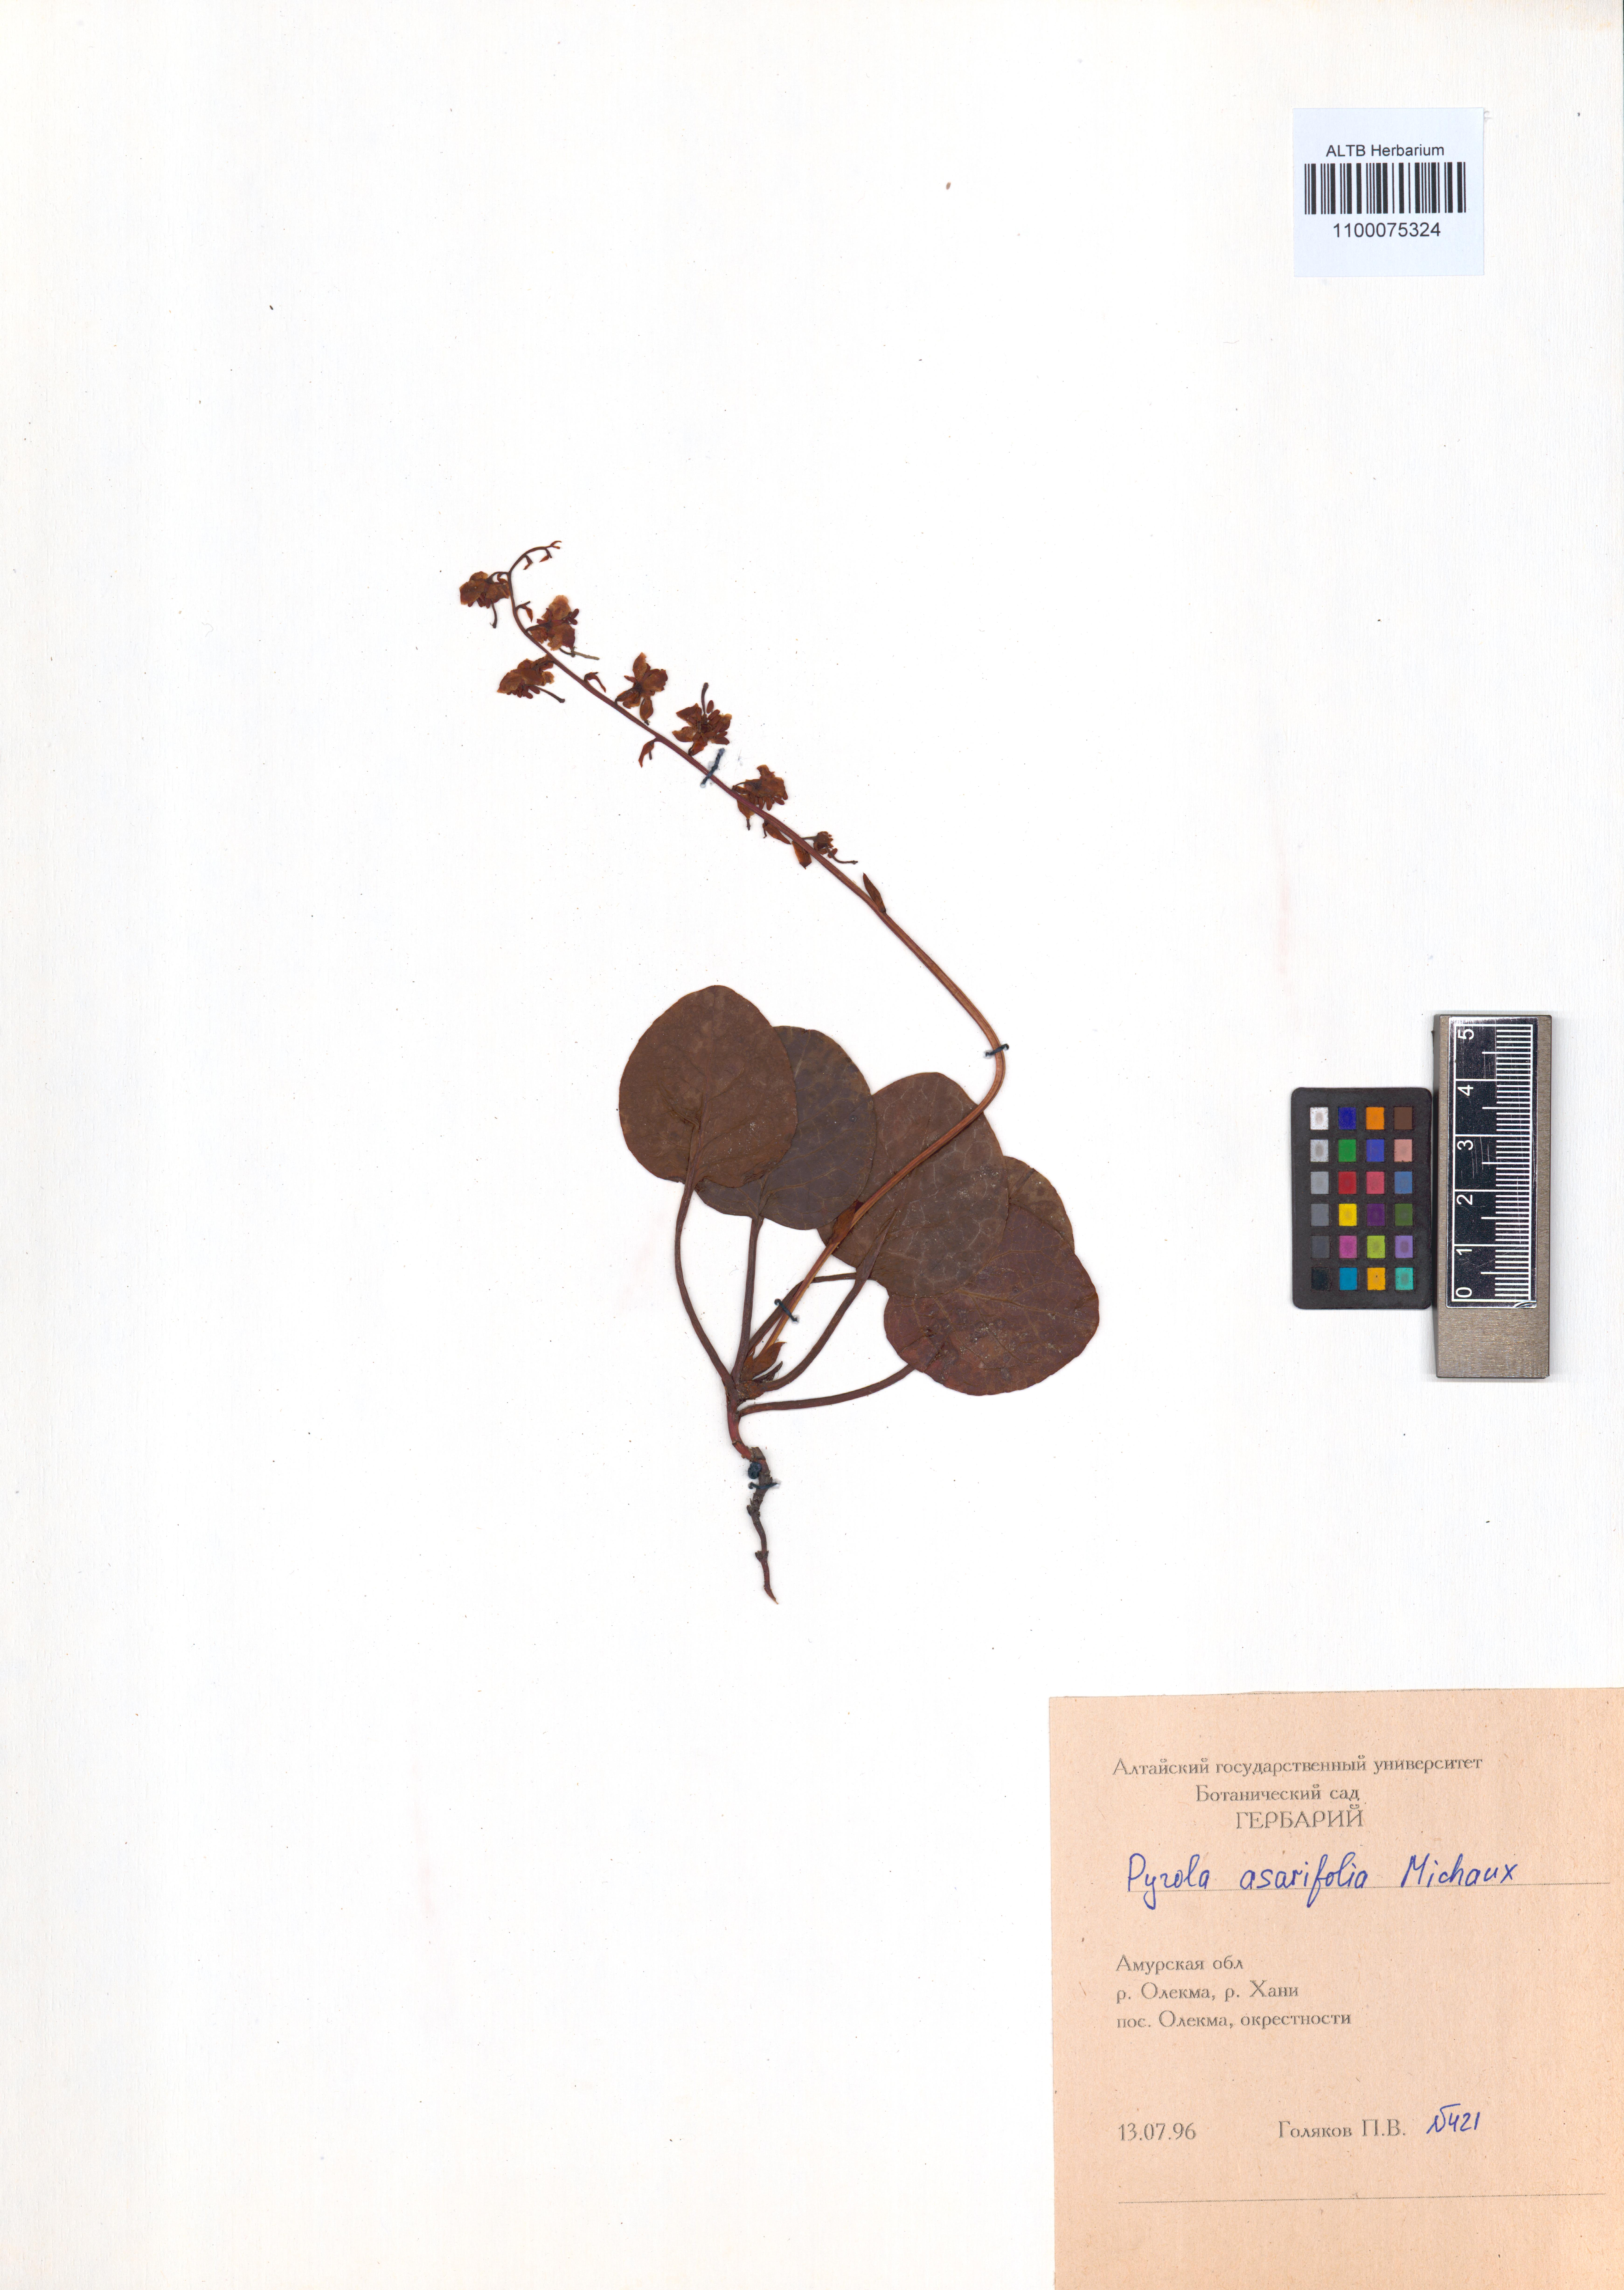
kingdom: Plantae
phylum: Tracheophyta
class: Magnoliopsida
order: Ericales
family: Ericaceae
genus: Pyrola
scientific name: Pyrola asarifolia
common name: Bog wintergreen
